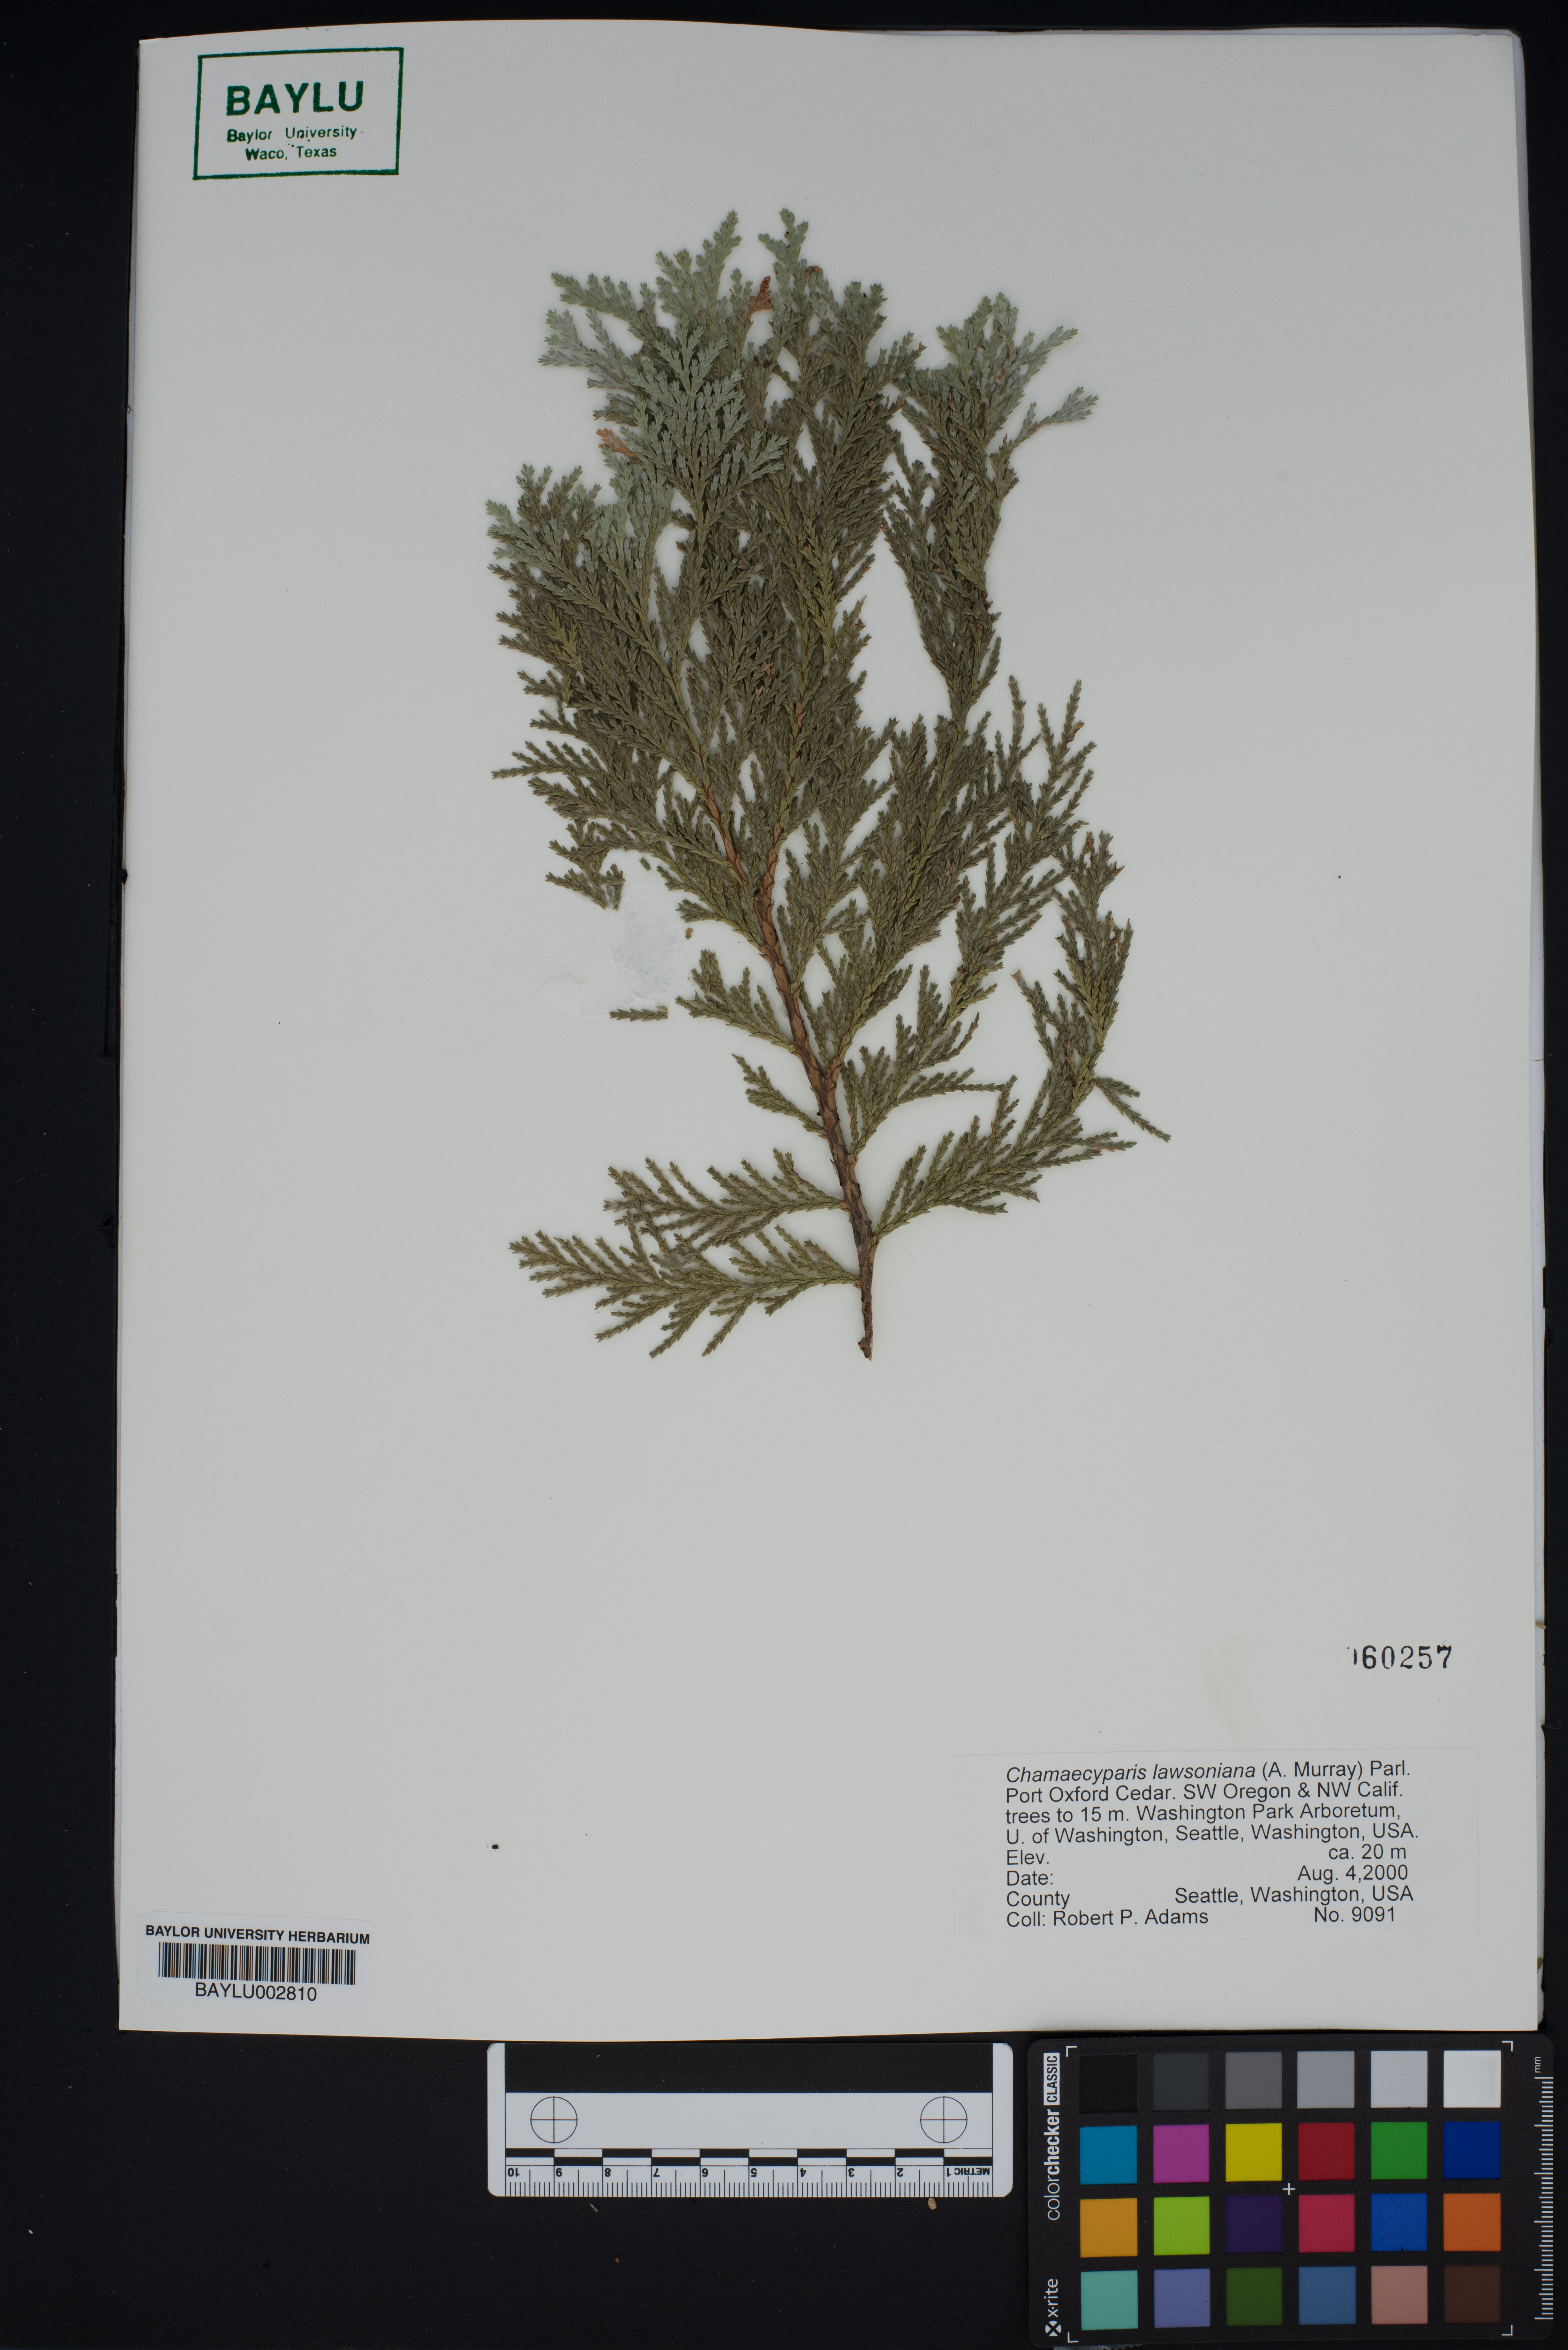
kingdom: Plantae
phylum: Tracheophyta
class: Pinopsida
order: Pinales
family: Cupressaceae
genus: Chamaecyparis
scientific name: Chamaecyparis lawsoniana
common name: Lawson's cypress
